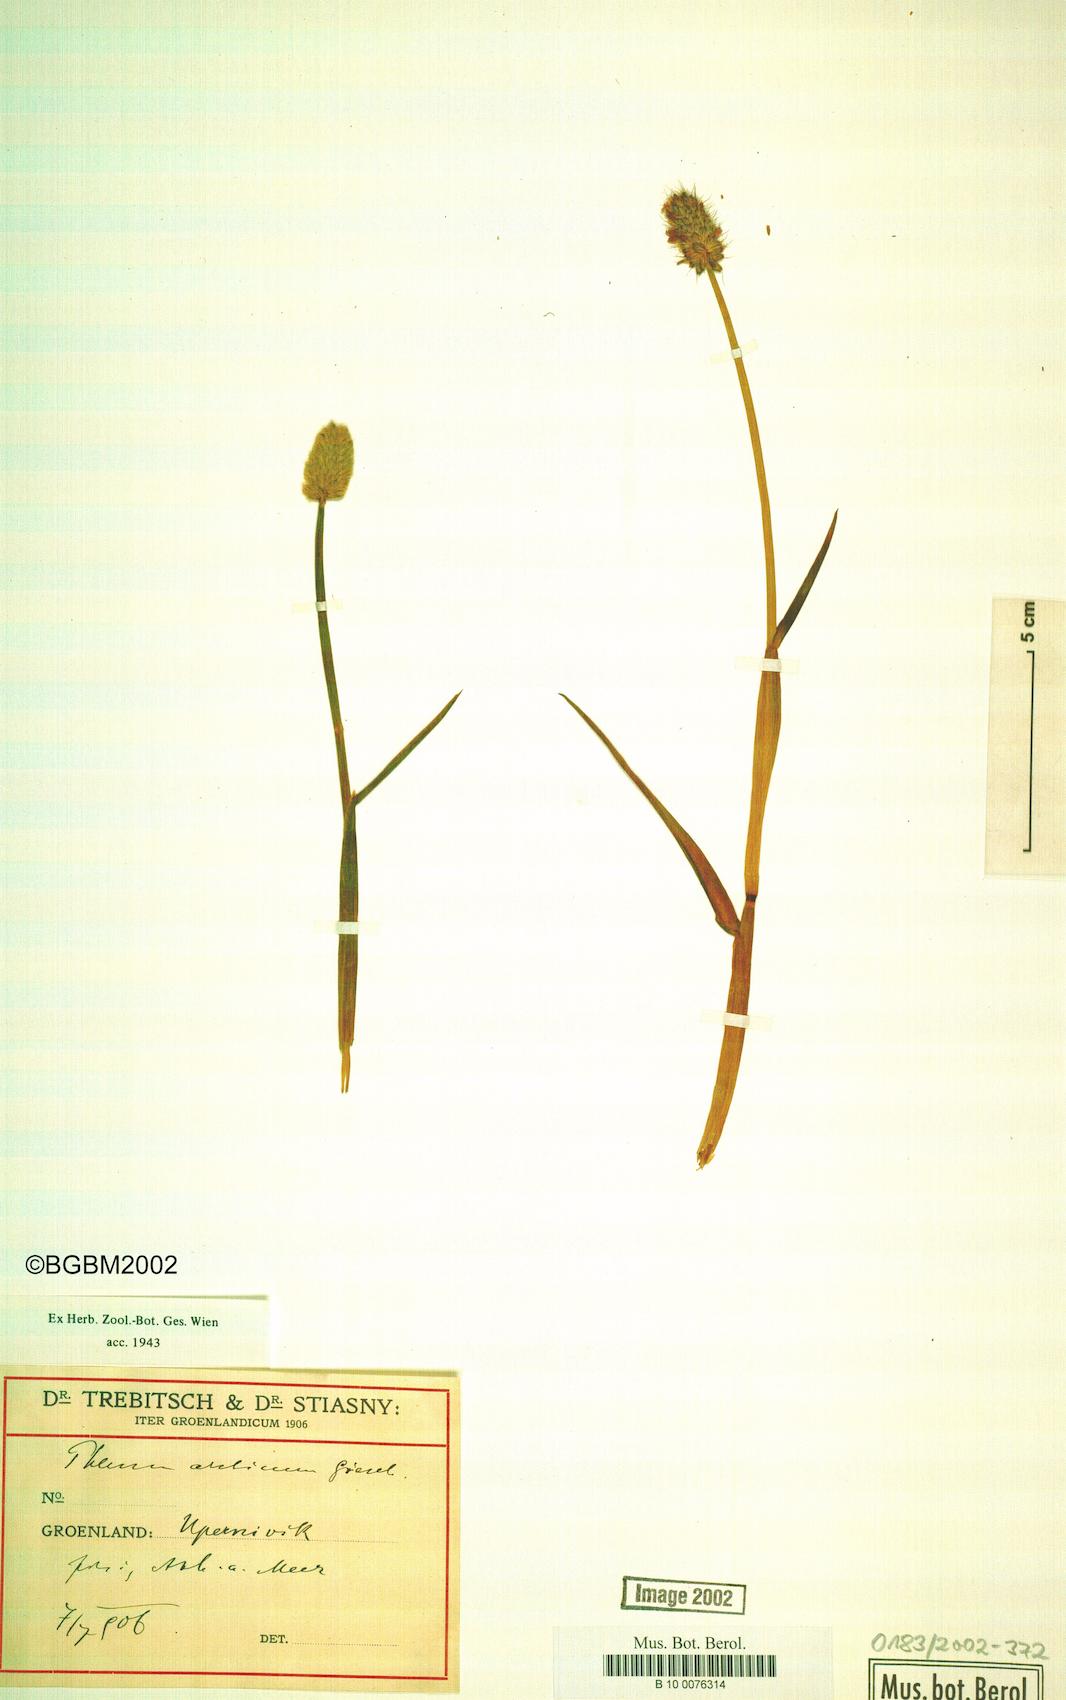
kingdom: Plantae
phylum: Tracheophyta
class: Liliopsida
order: Poales
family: Poaceae
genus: Phleum
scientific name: Phleum alpinum
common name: Alpine cat's-tail
